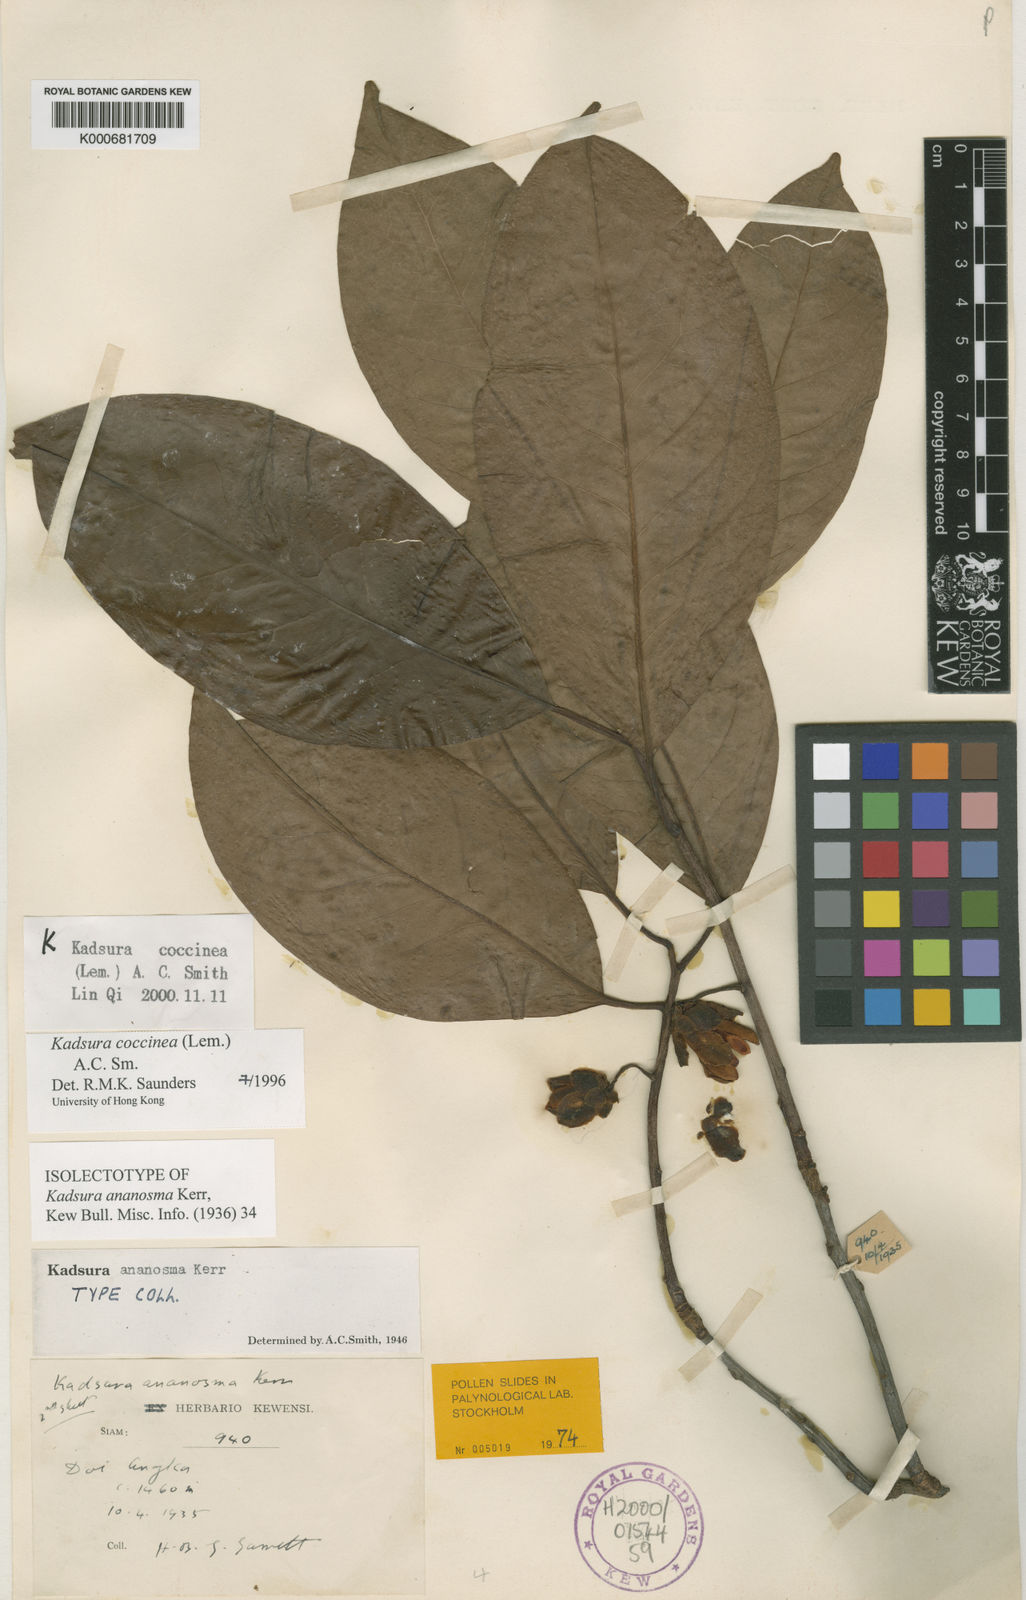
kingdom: Plantae
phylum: Tracheophyta
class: Magnoliopsida
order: Austrobaileyales
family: Schisandraceae
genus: Kadsura
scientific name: Kadsura coccinea
